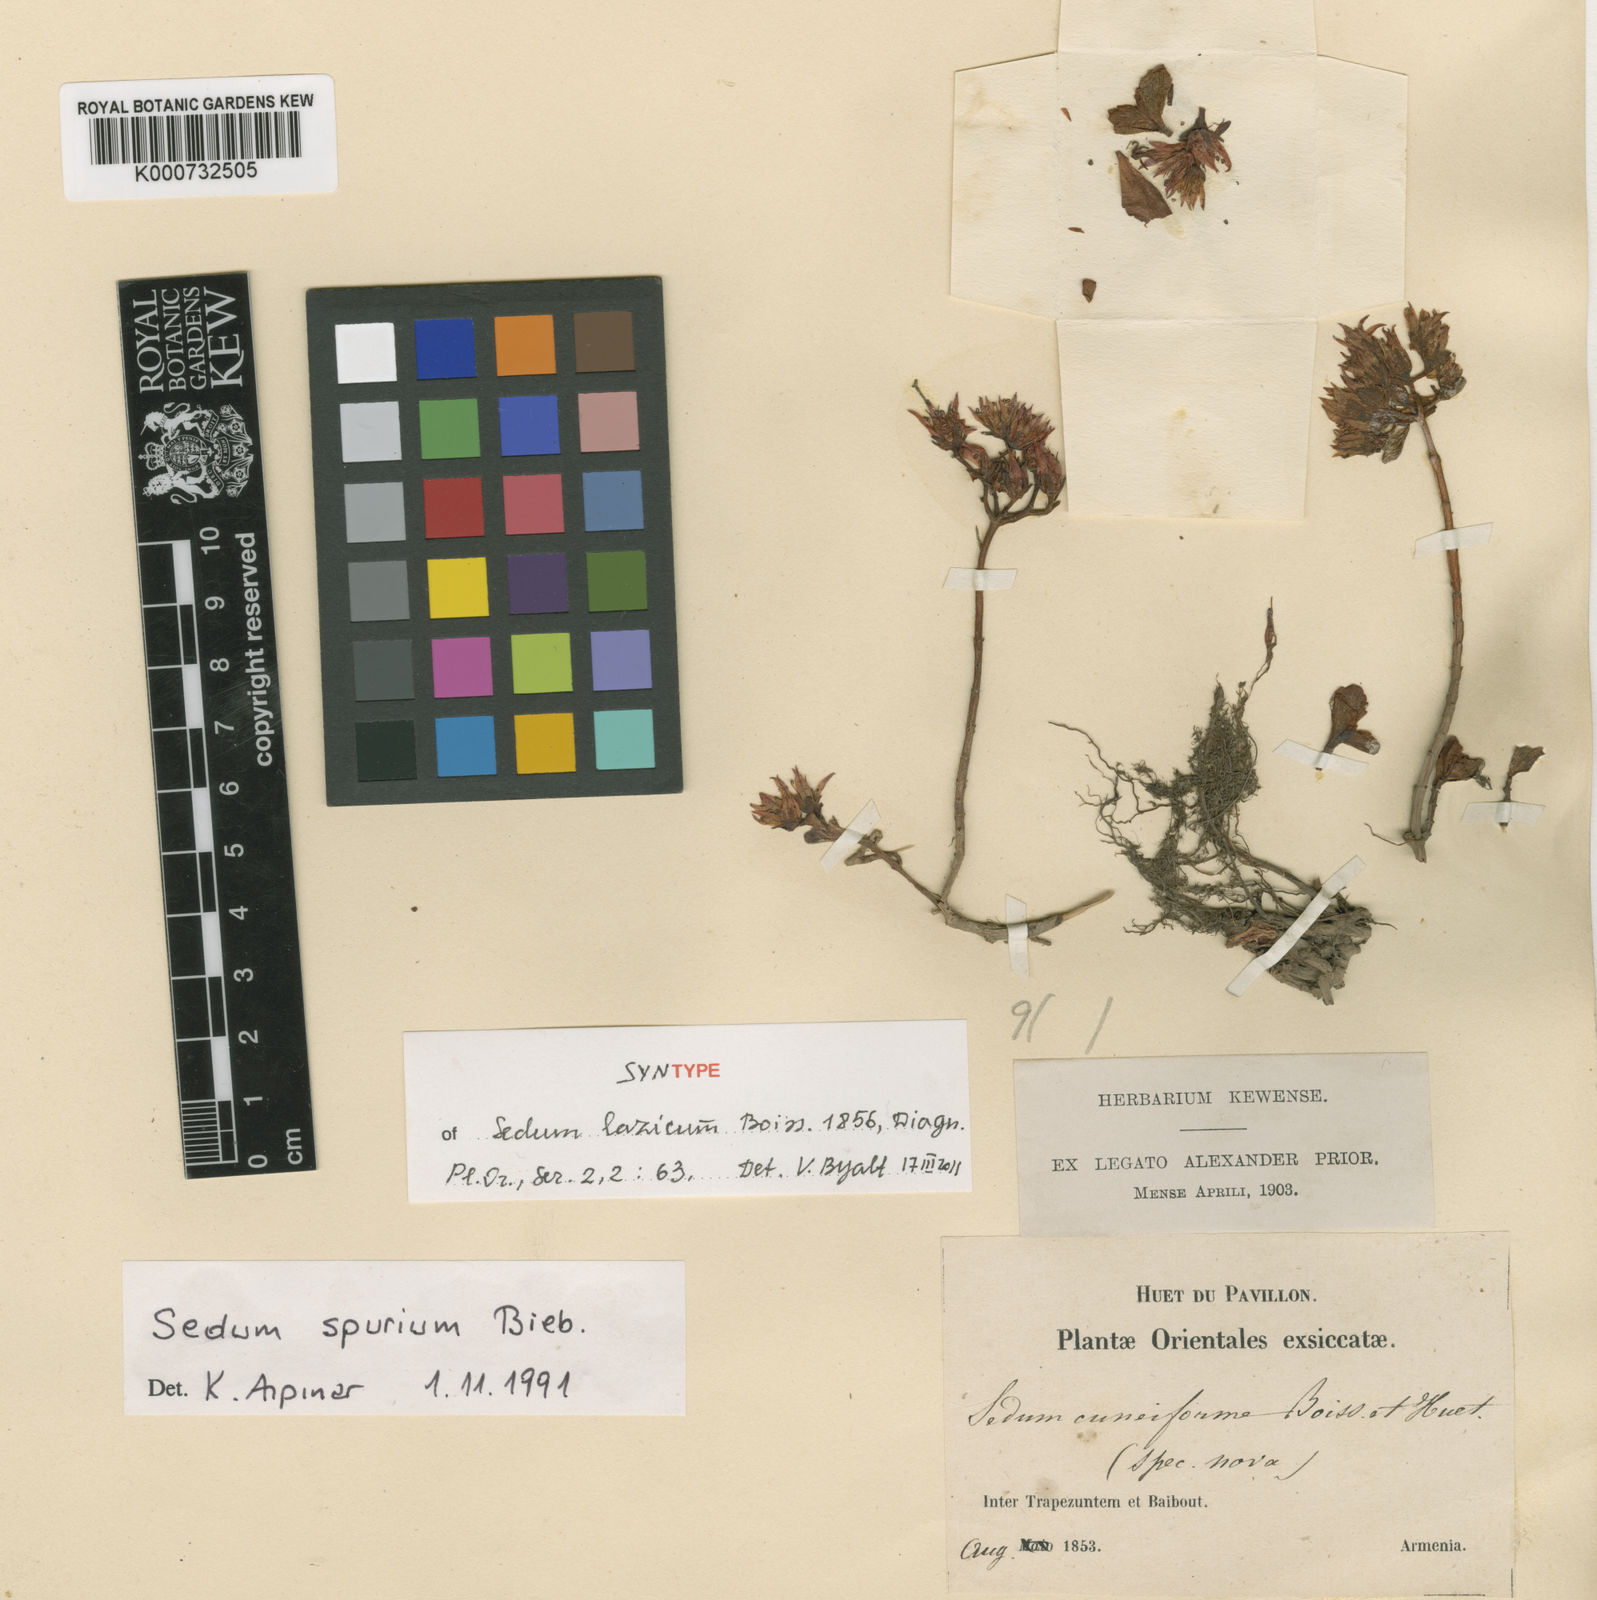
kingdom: Plantae
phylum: Tracheophyta
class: Magnoliopsida
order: Saxifragales
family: Crassulaceae
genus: Phedimus
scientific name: Phedimus spurius
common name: Caucasian stonecrop
